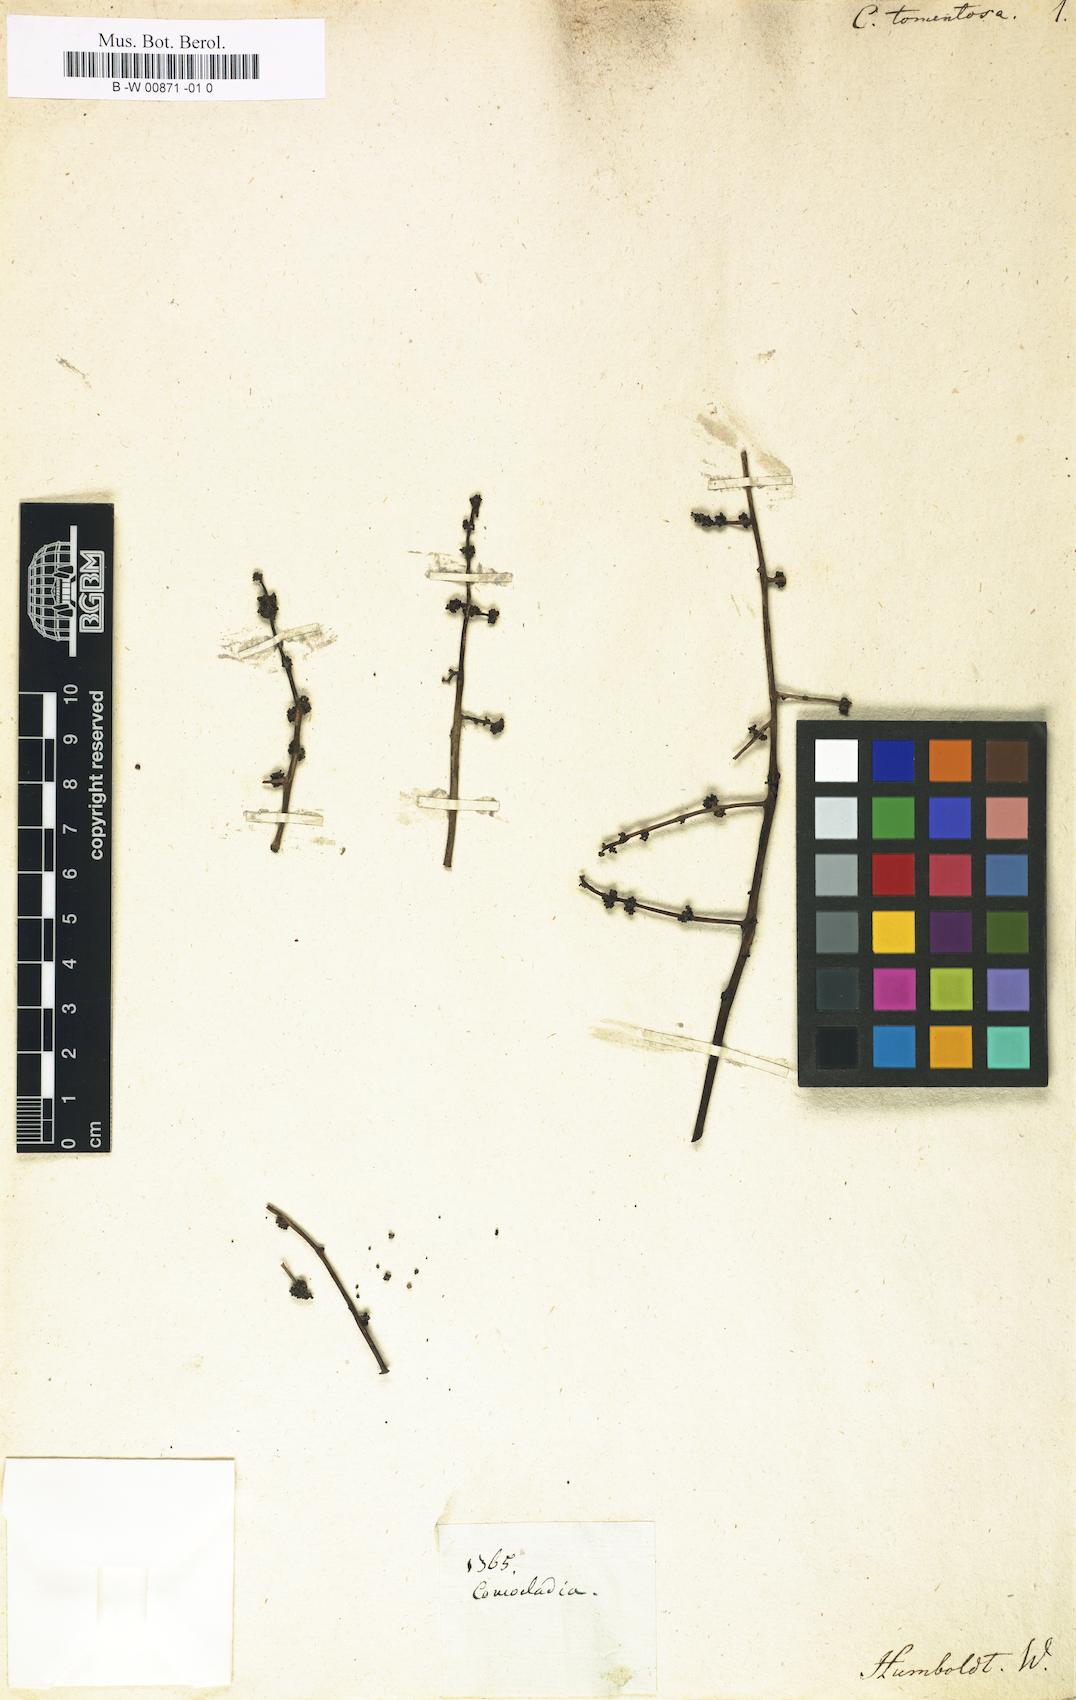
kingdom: Plantae
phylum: Tracheophyta
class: Magnoliopsida
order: Sapindales
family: Anacardiaceae
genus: Comocladia
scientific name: Comocladia dentata
